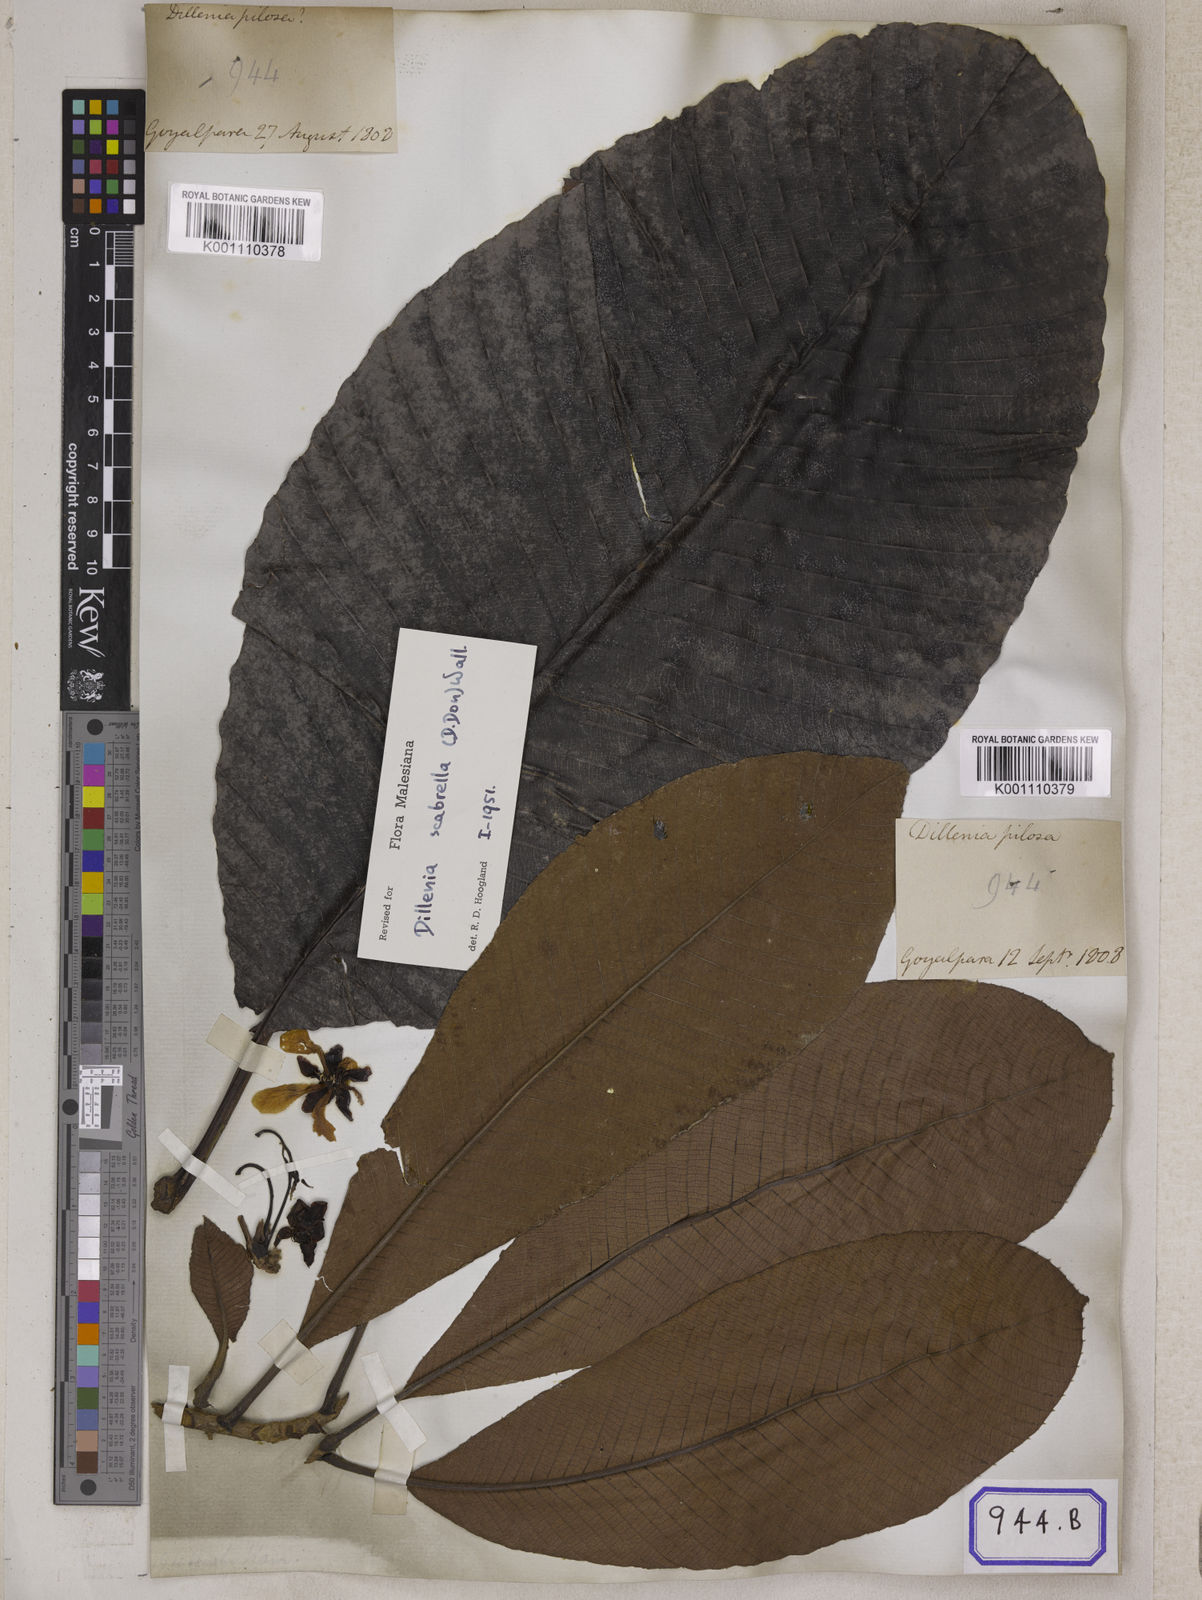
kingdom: Plantae
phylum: Tracheophyta
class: Magnoliopsida
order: Dilleniales
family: Dilleniaceae
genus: Dillenia
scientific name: Dillenia
